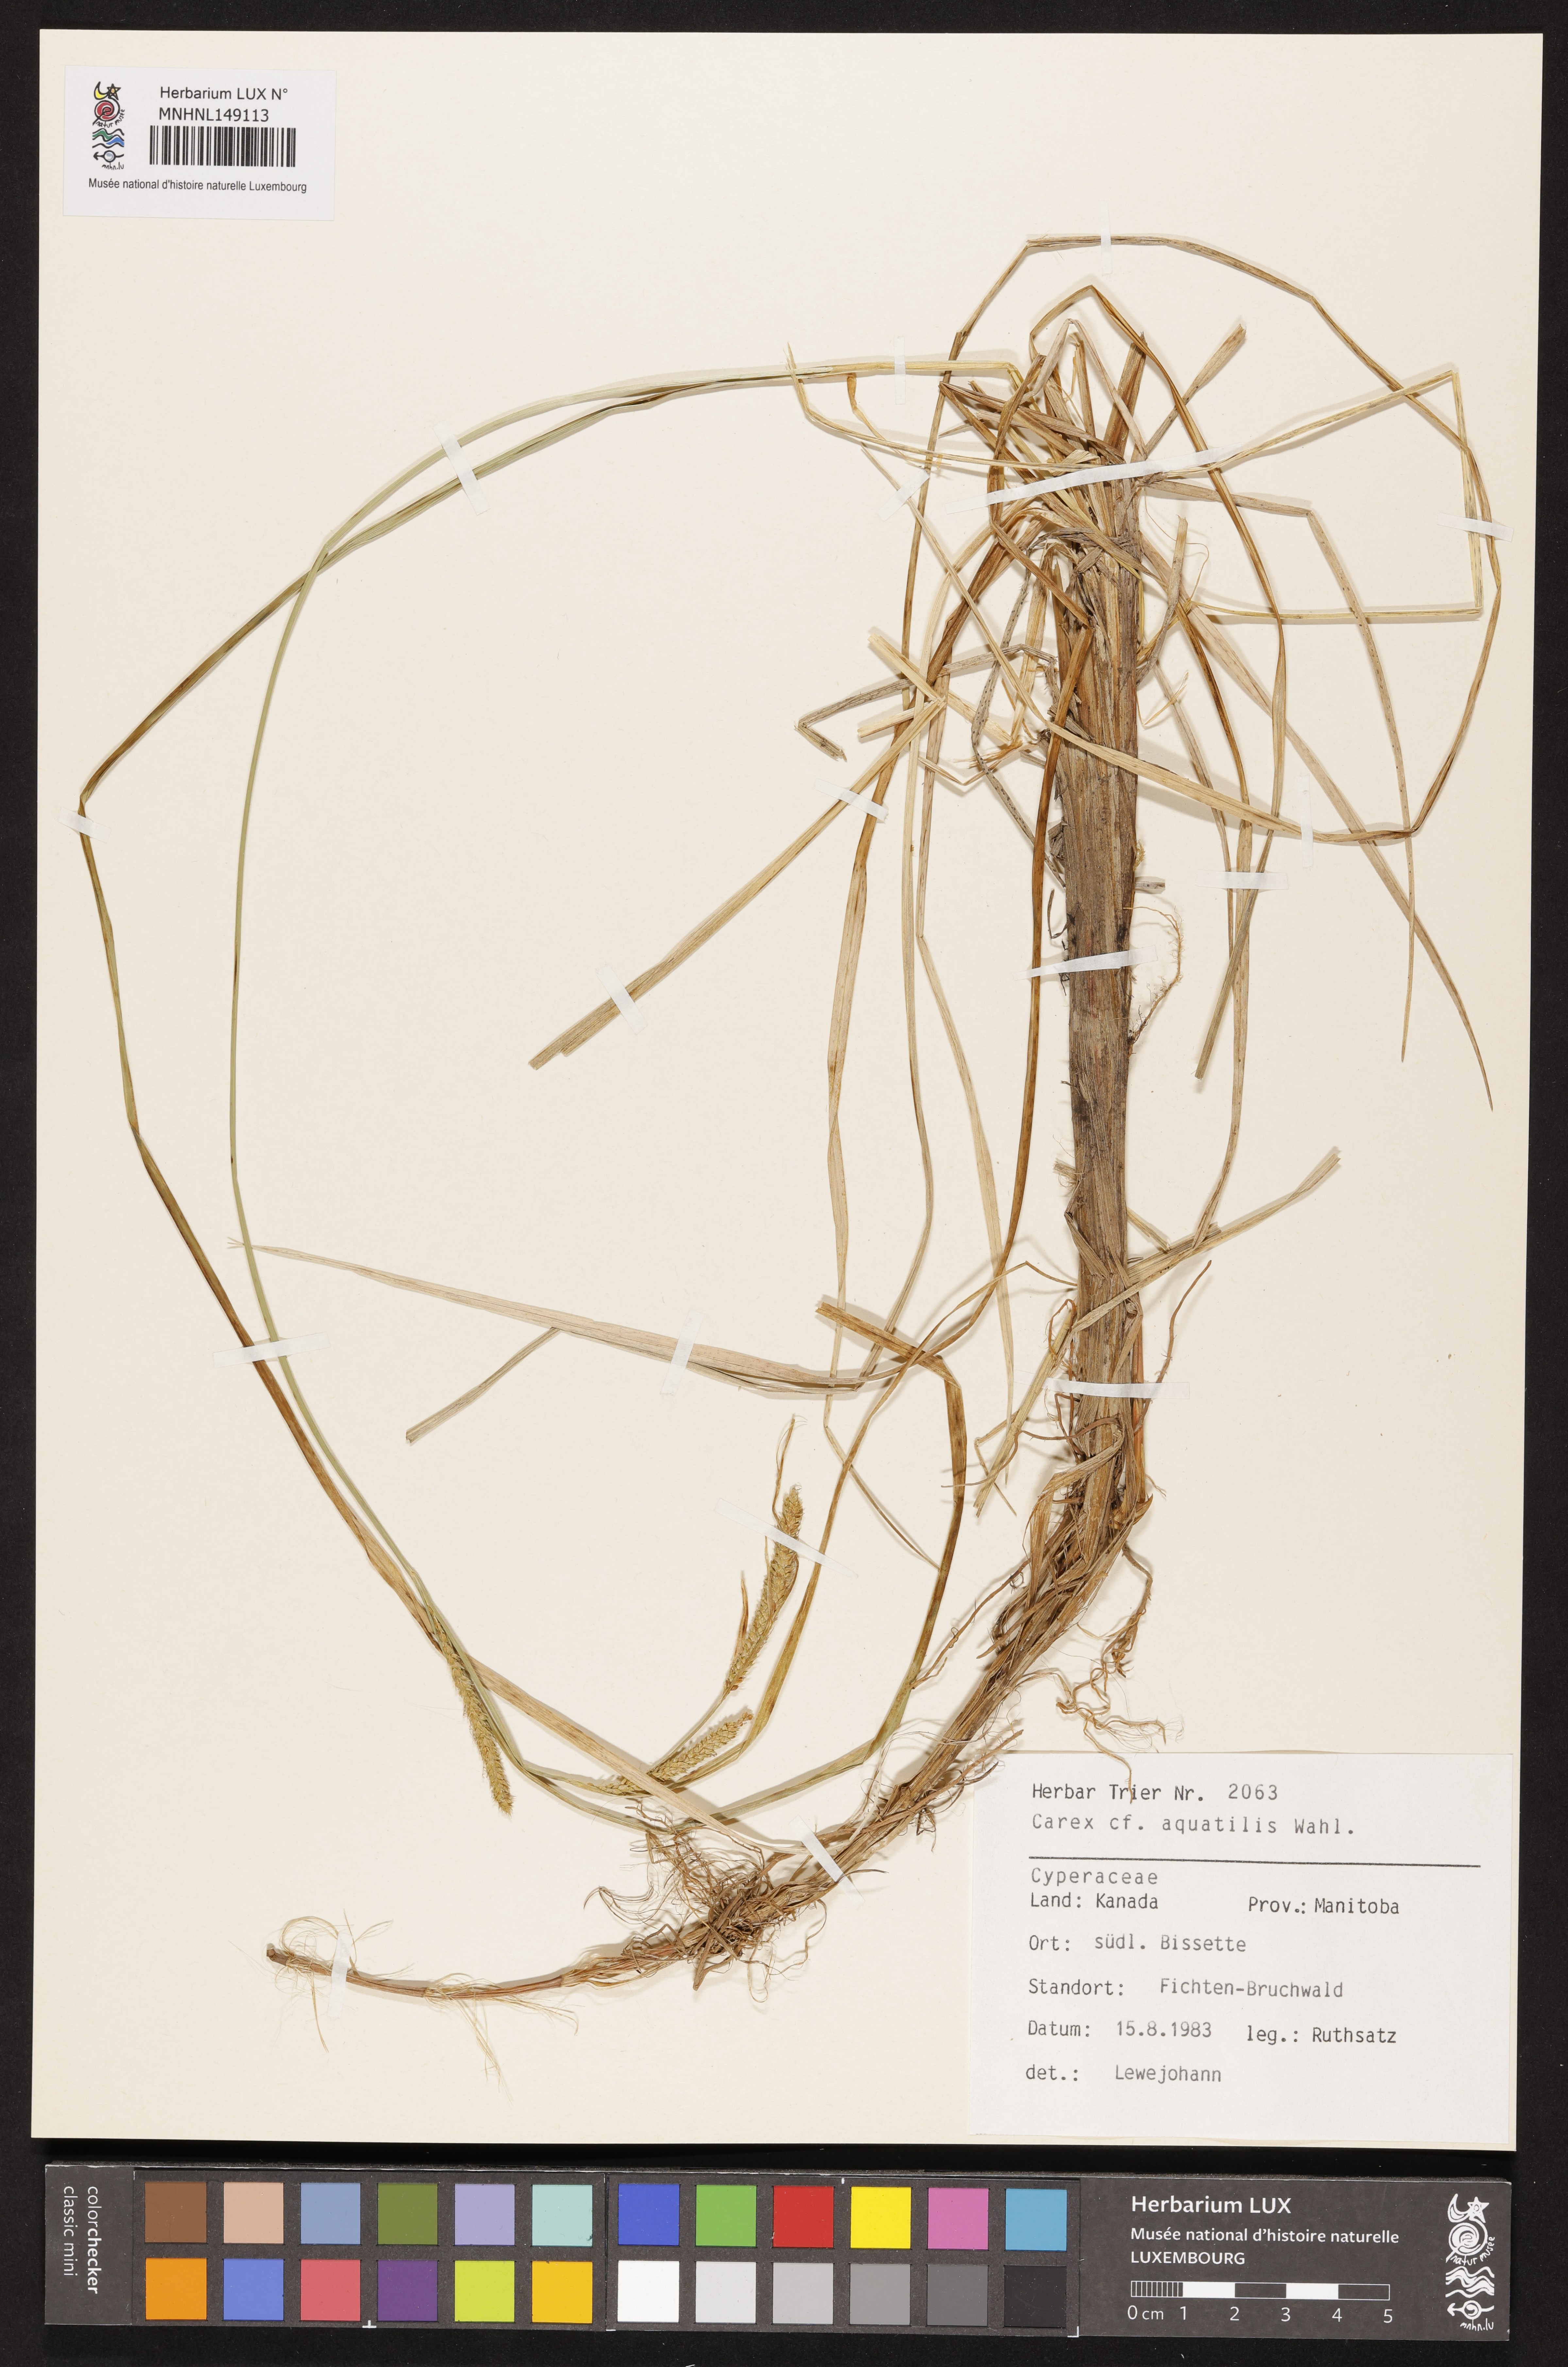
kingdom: Plantae
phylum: Tracheophyta
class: Liliopsida
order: Poales
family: Cyperaceae
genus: Carex
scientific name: Carex aquatilis
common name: Water sedge
